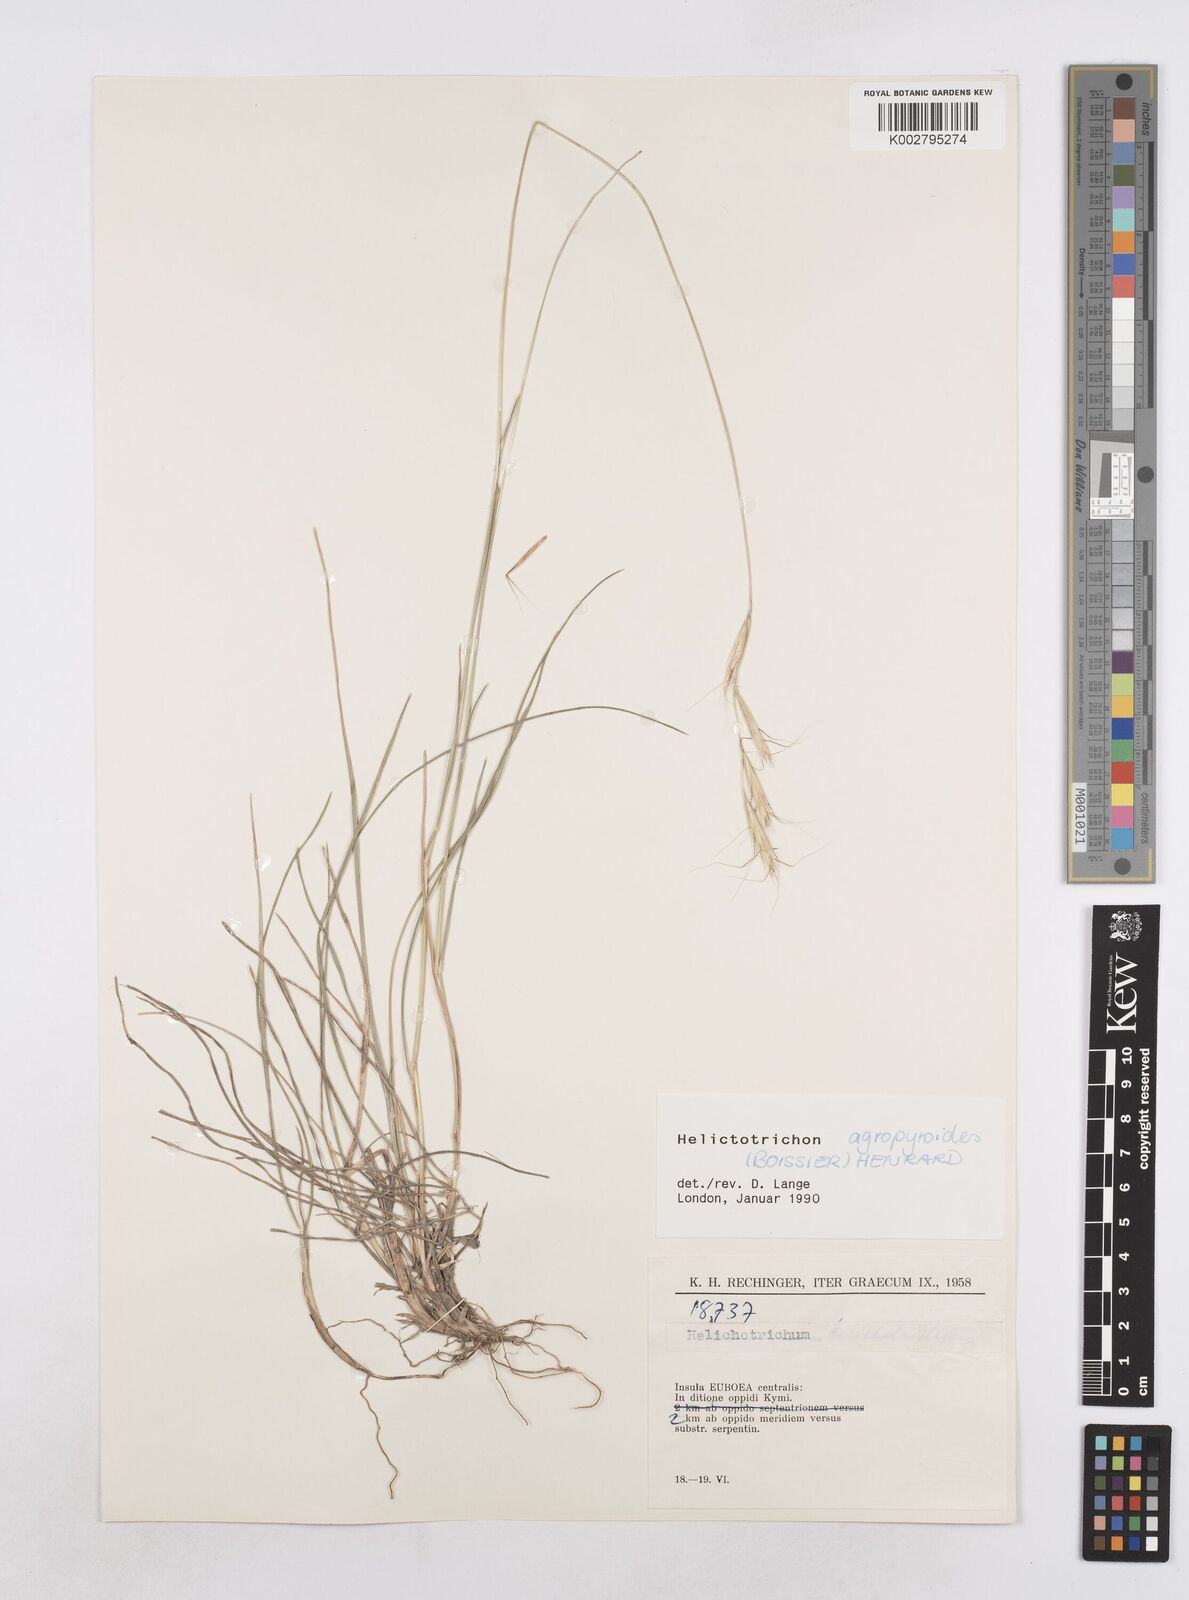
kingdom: Plantae
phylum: Tracheophyta
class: Liliopsida
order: Poales
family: Poaceae
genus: Helictochloa
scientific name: Helictochloa agropyroides
